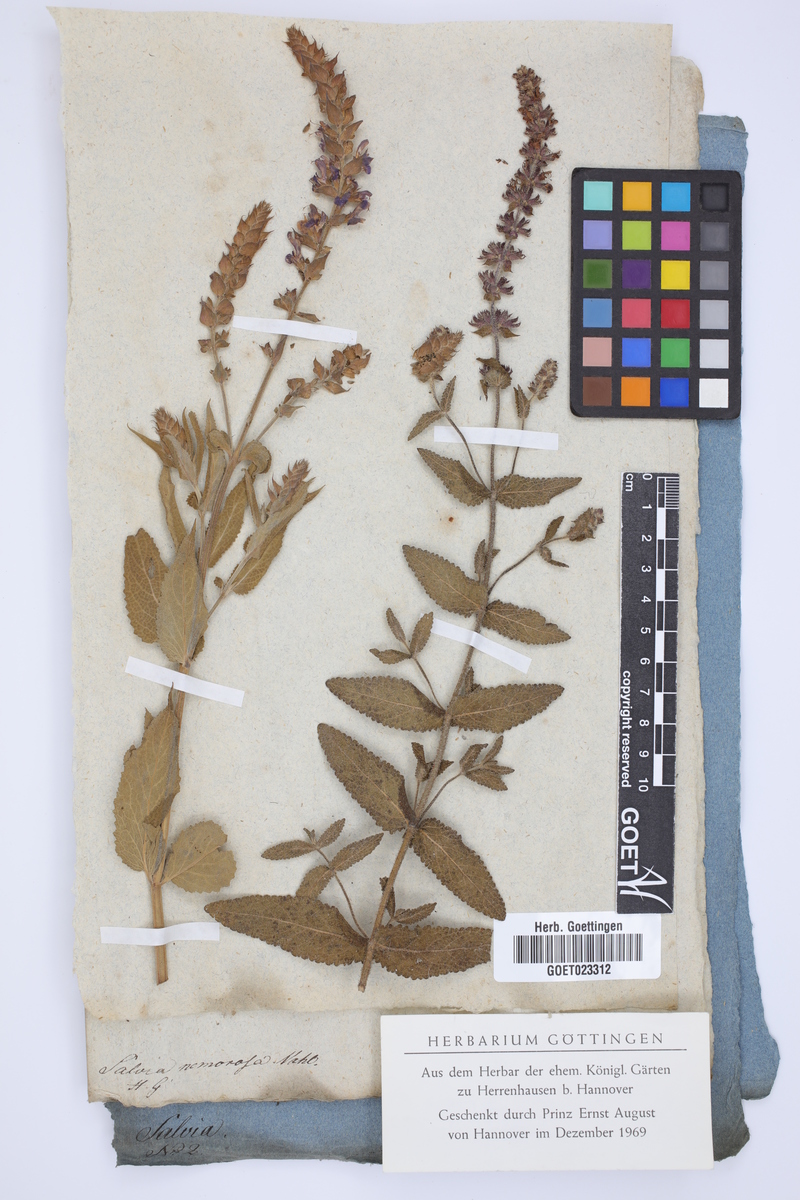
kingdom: Plantae
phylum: Tracheophyta
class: Magnoliopsida
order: Lamiales
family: Lamiaceae
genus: Salvia
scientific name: Salvia nemorosa
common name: Balkan clary
